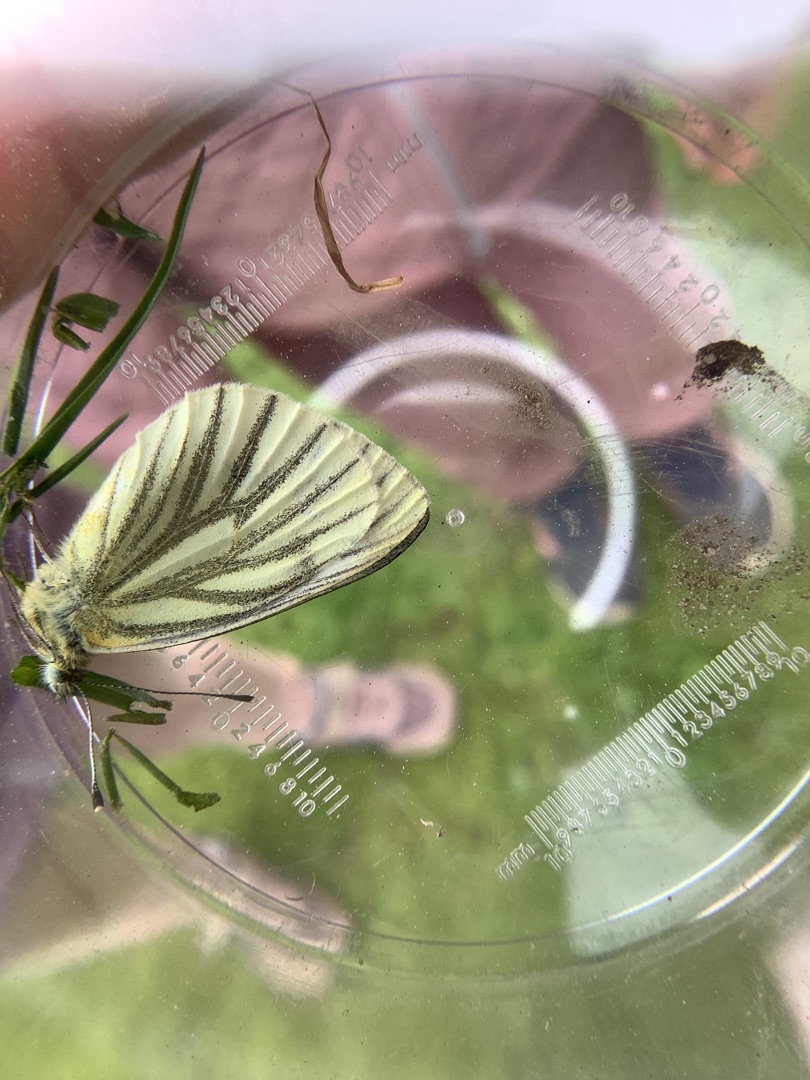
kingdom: Animalia
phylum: Arthropoda
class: Insecta
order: Lepidoptera
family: Pieridae
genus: Pieris
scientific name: Pieris napi
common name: Grønåret kålsommerfugl
